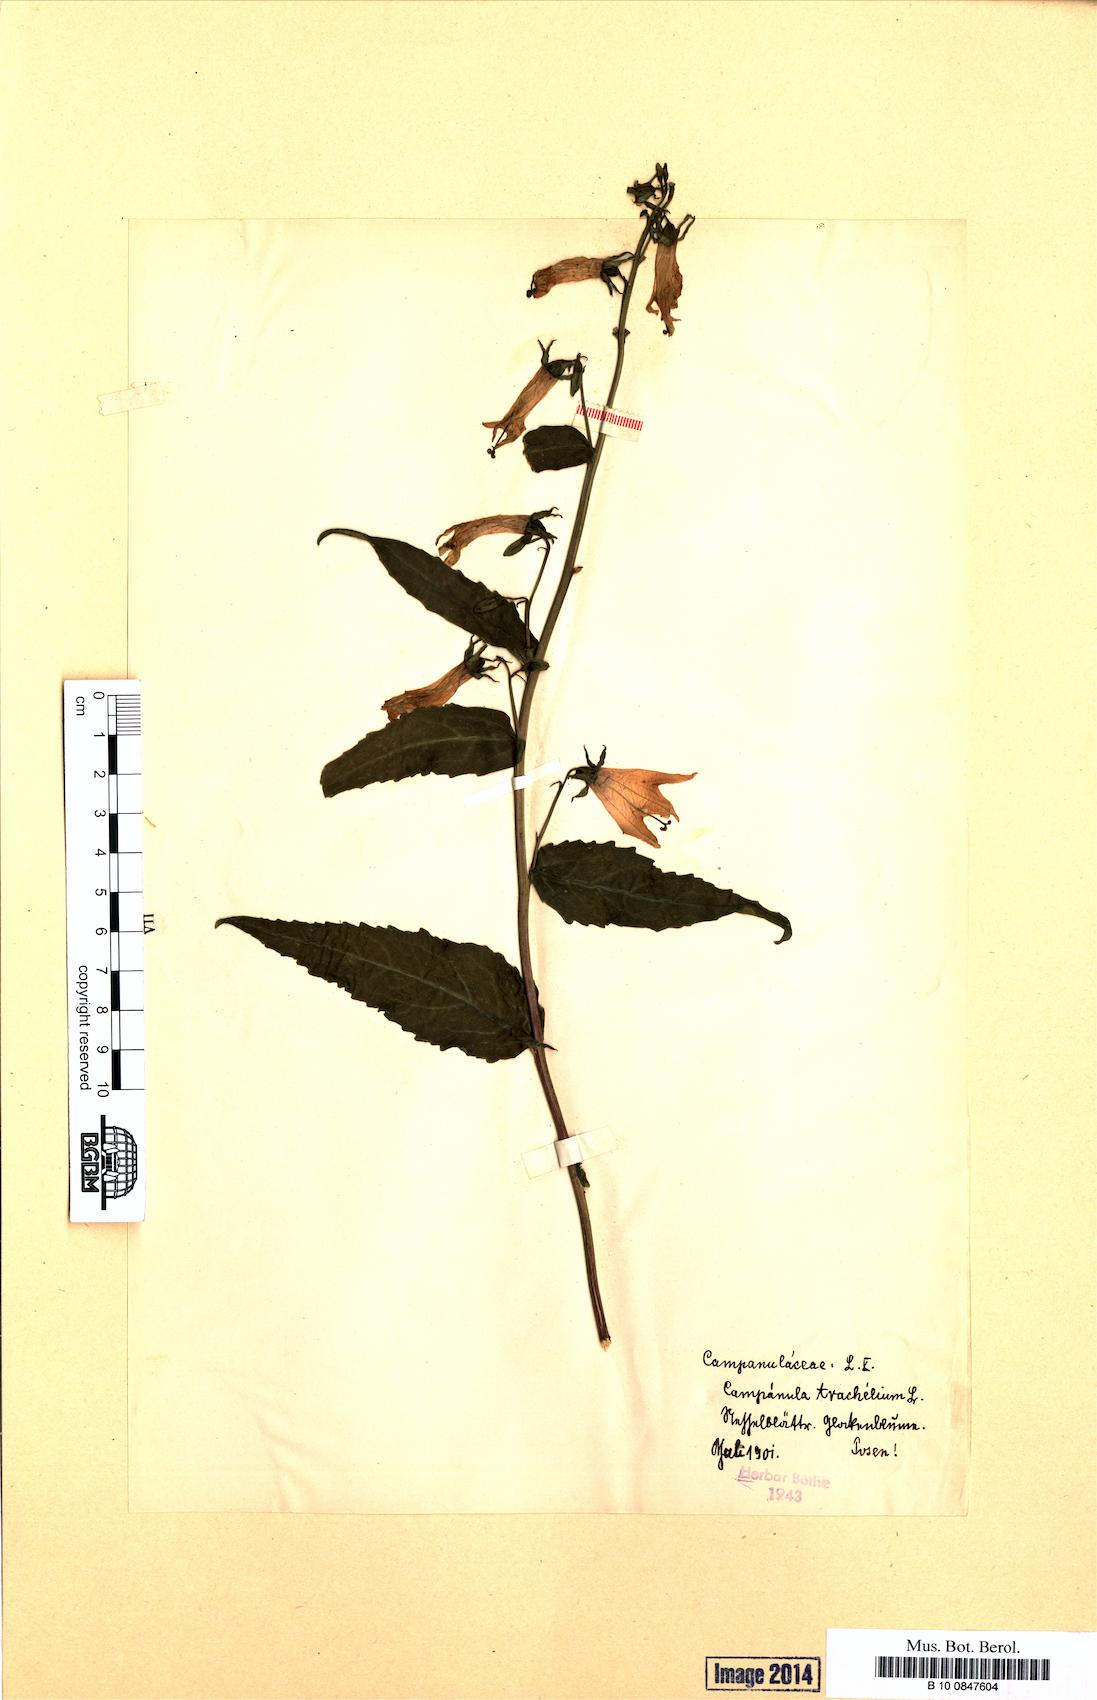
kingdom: Plantae
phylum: Tracheophyta
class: Magnoliopsida
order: Asterales
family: Campanulaceae
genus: Campanula
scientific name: Campanula trachelium
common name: Nettle-leaved bellflower
